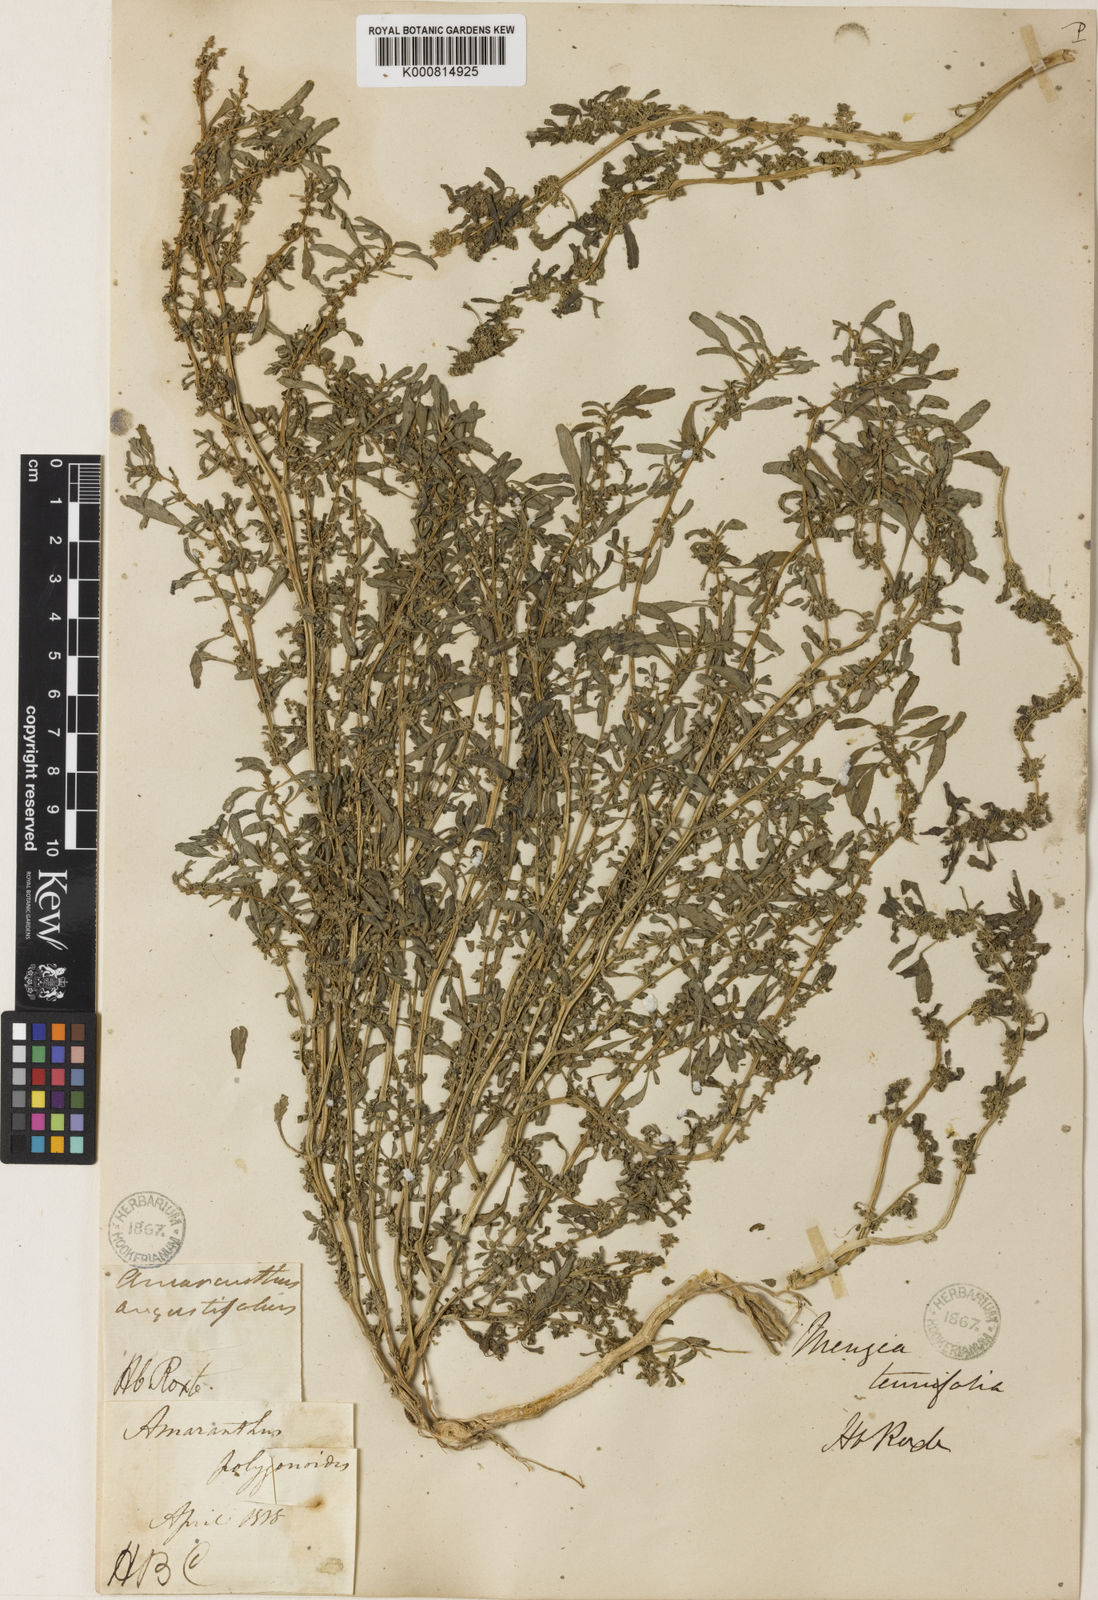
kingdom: Plantae
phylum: Tracheophyta
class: Magnoliopsida
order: Caryophyllales
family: Amaranthaceae
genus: Amaranthus
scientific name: Amaranthus graecizans
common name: Mediterranean amaranth
